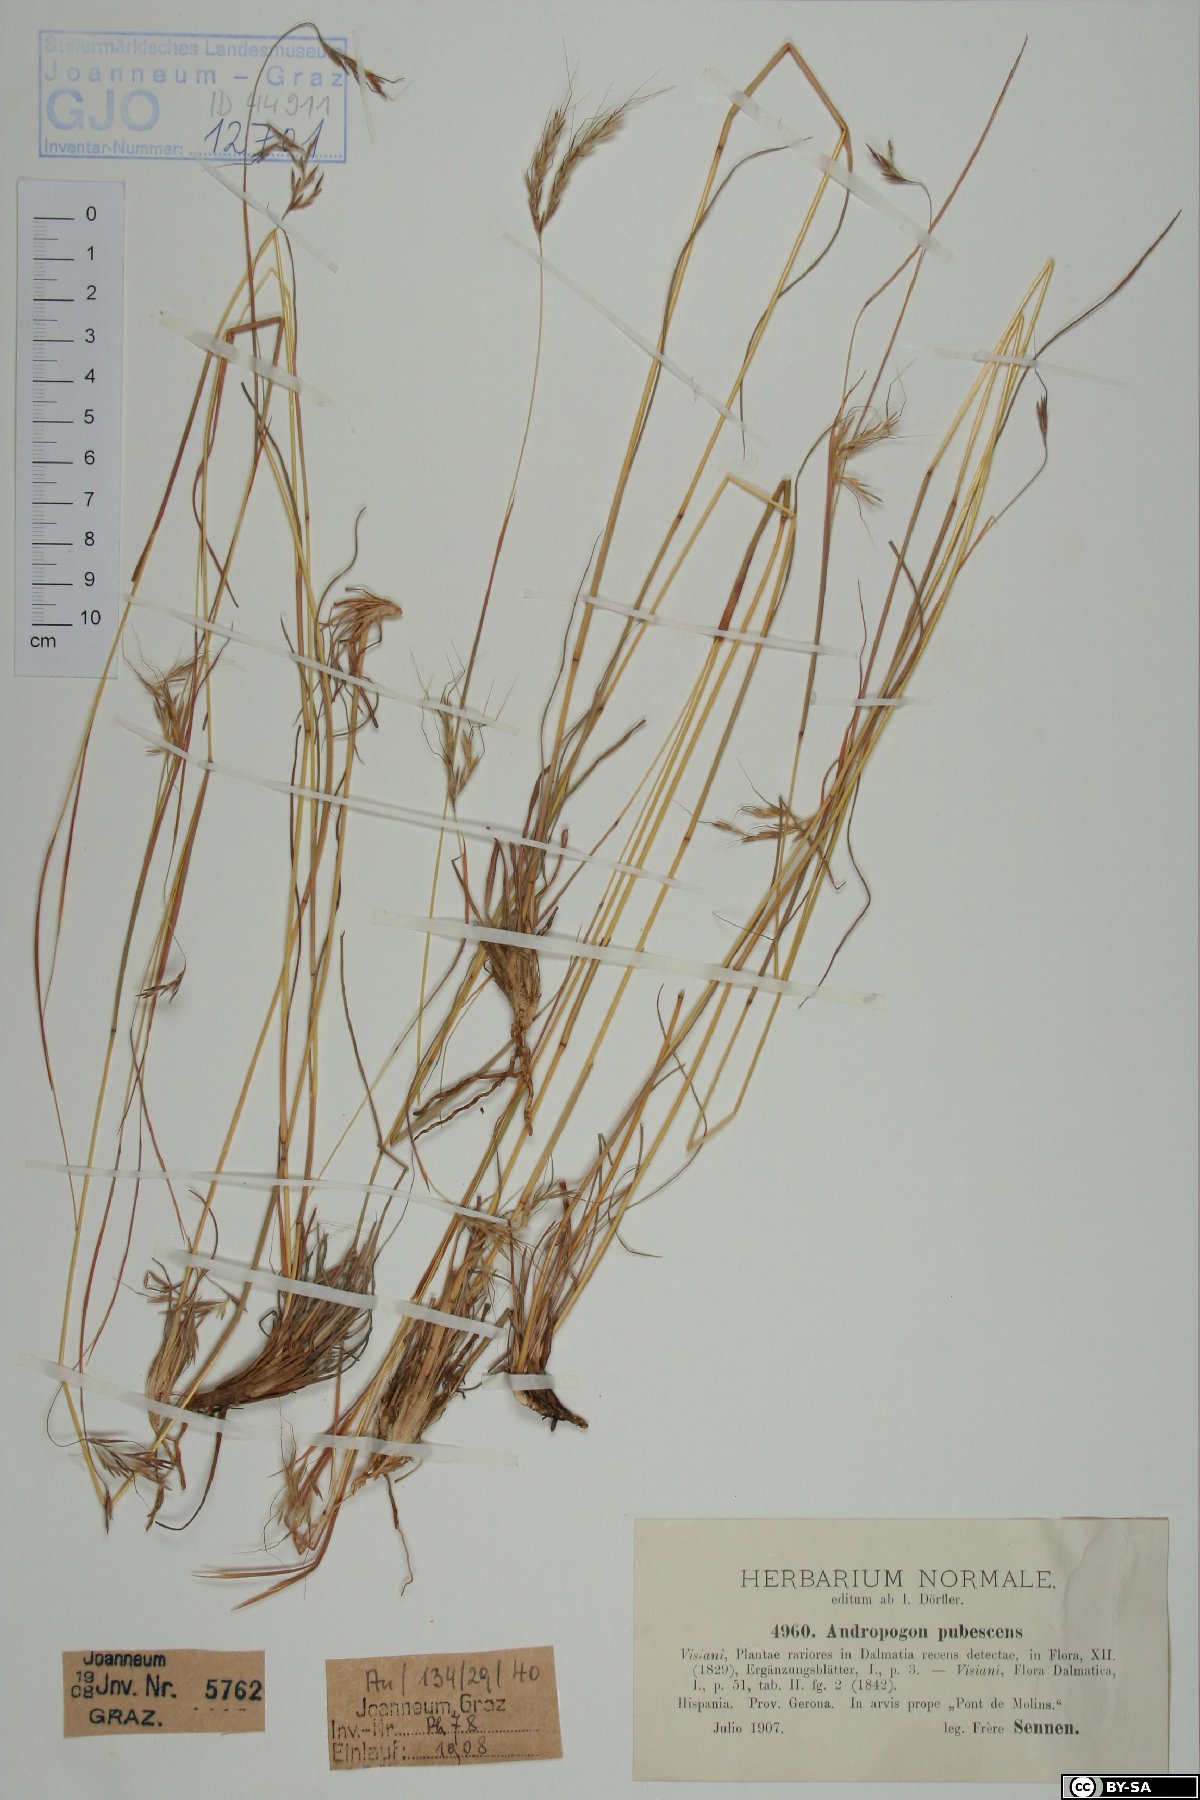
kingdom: Plantae
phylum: Tracheophyta
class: Liliopsida
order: Poales
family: Poaceae
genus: Hyparrhenia
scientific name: Hyparrhenia hirta
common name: Thatching grass
